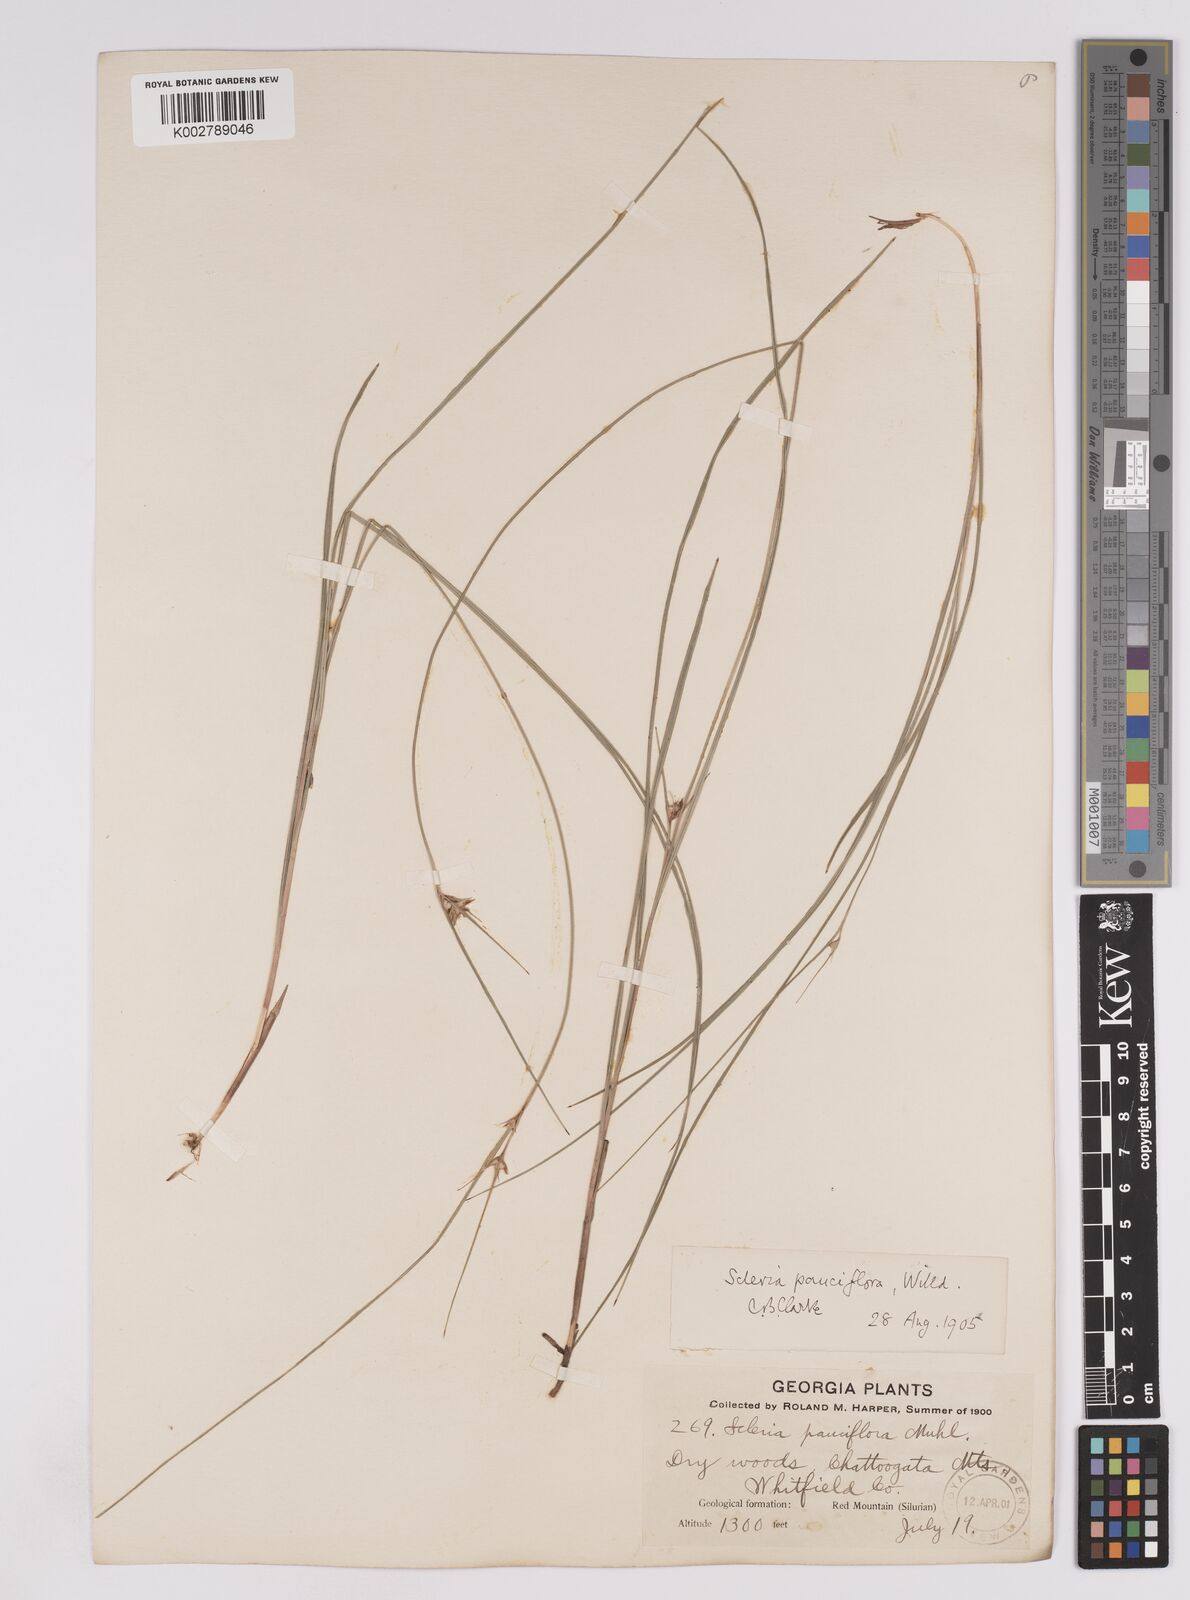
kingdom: Plantae
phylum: Tracheophyta
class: Liliopsida
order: Poales
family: Cyperaceae
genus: Scleria
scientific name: Scleria pauciflora
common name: Few-flowered nutrush
